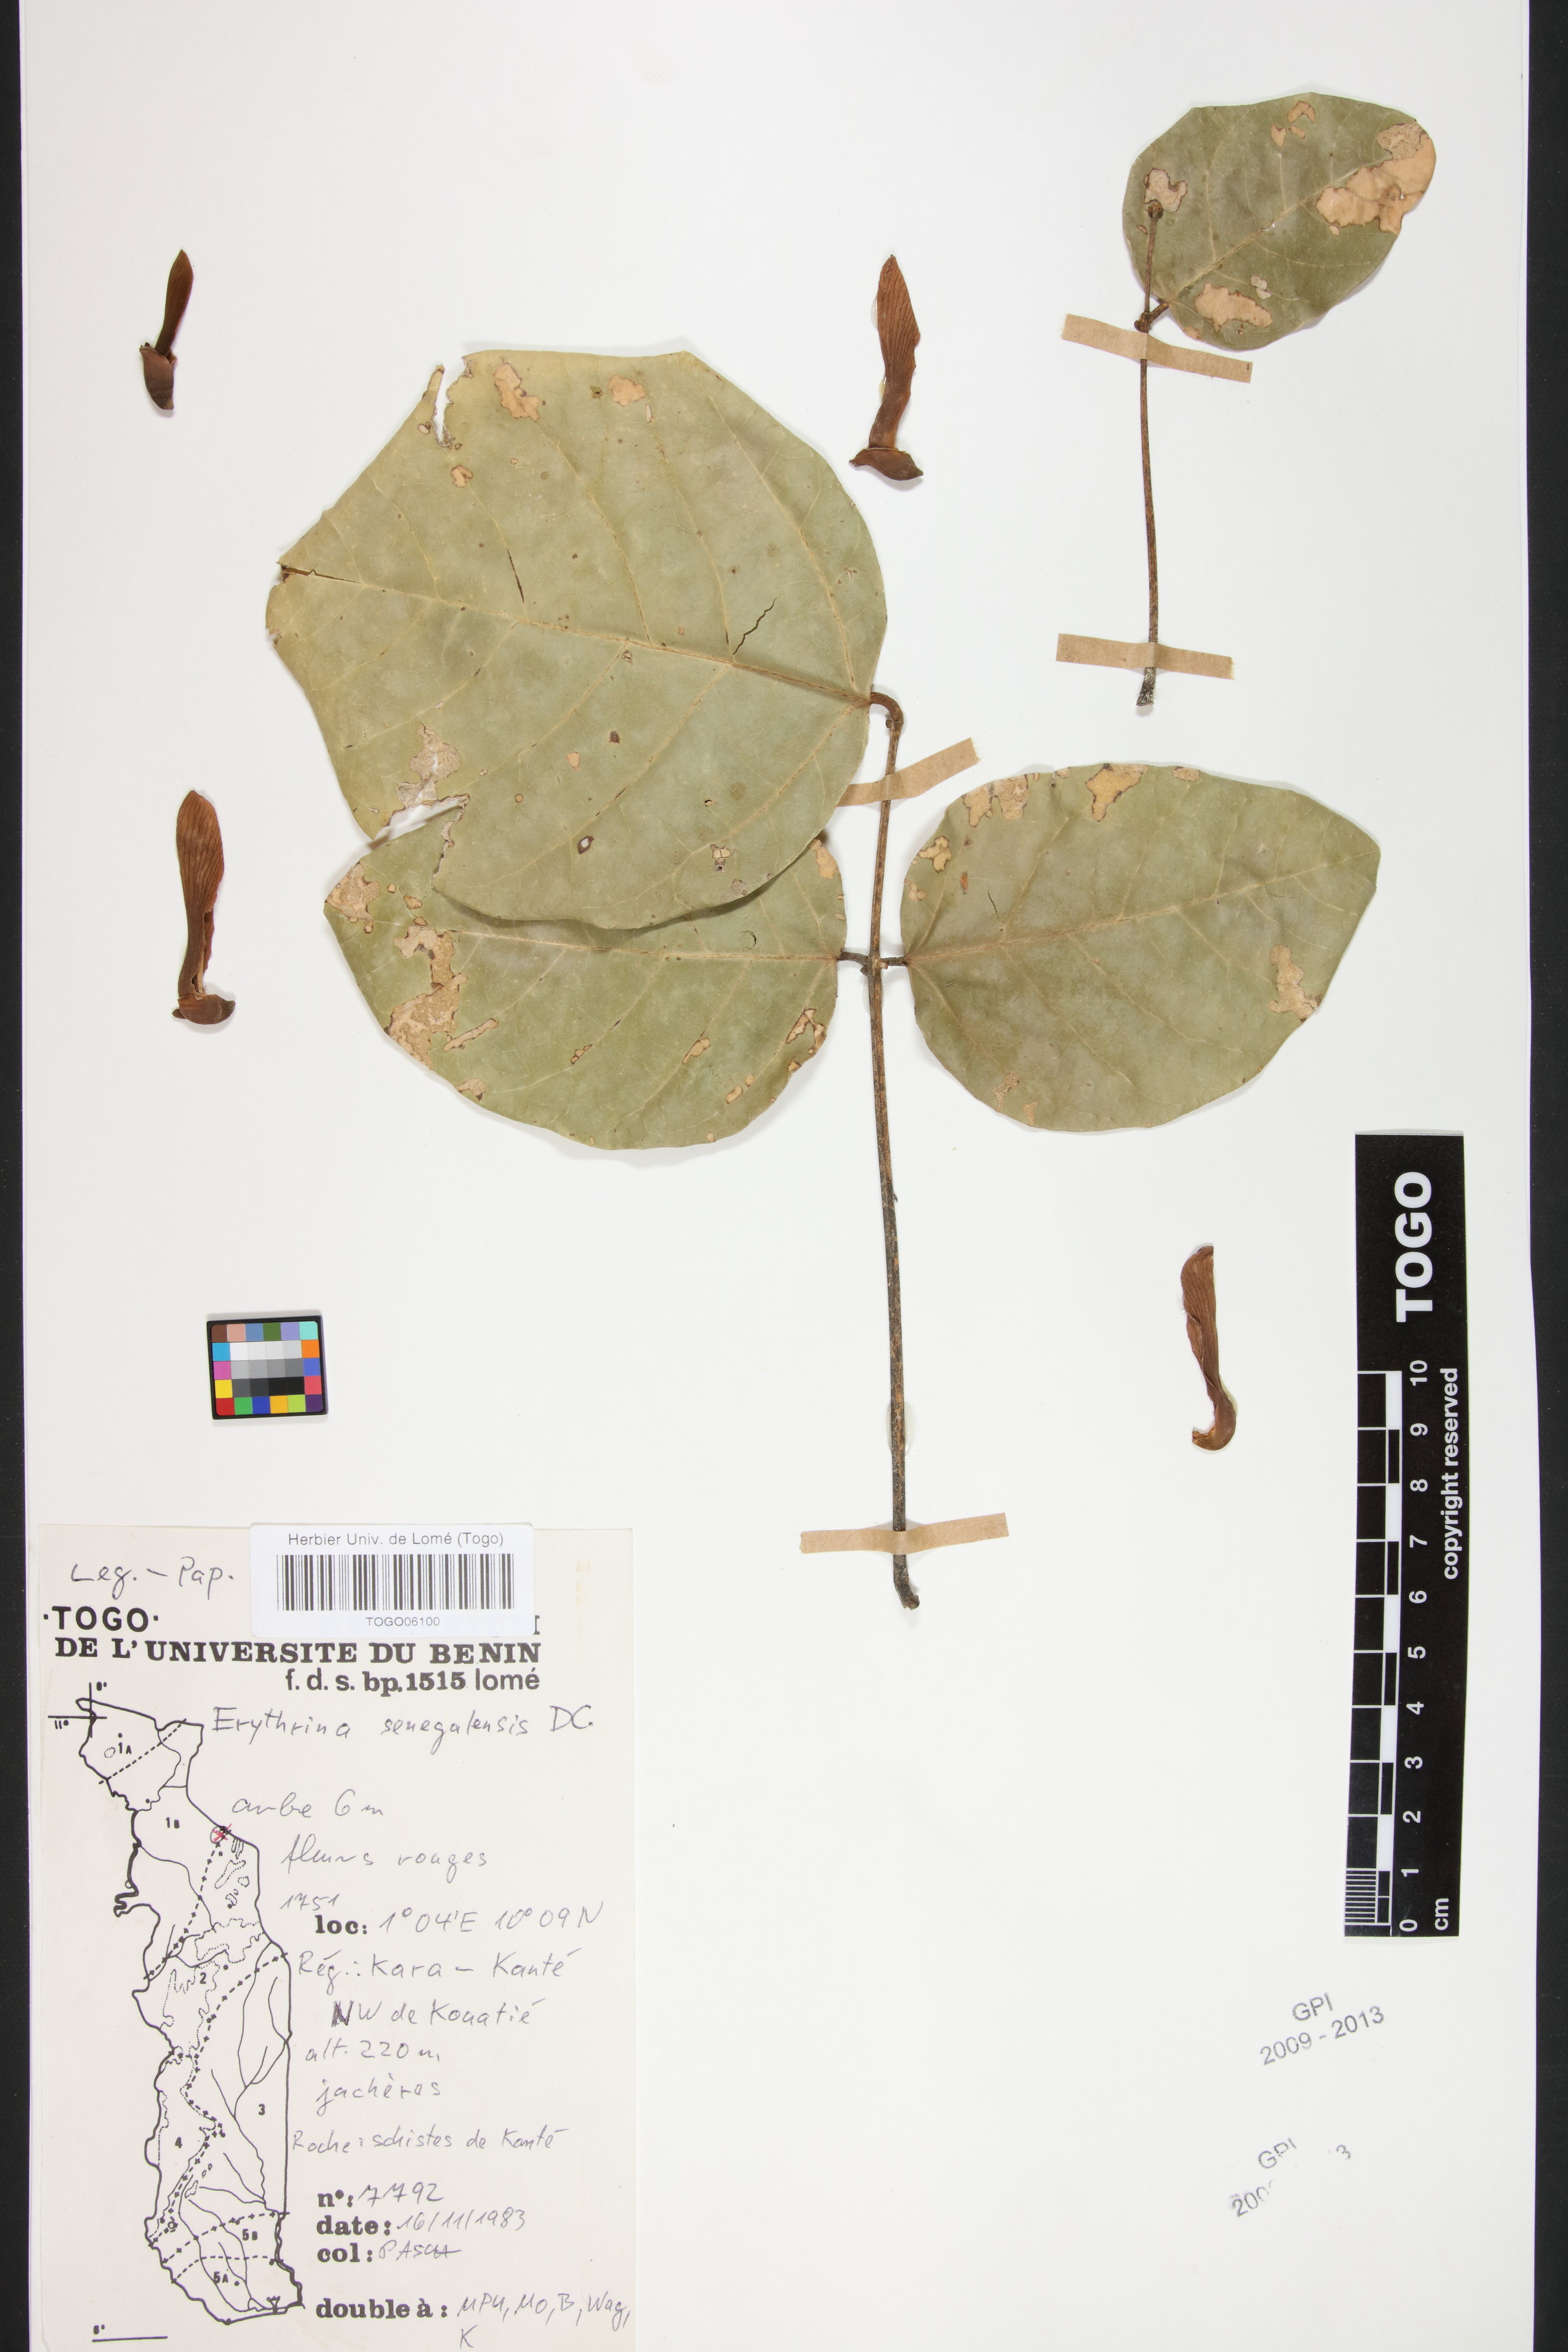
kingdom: Plantae
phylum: Tracheophyta
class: Magnoliopsida
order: Fabales
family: Fabaceae
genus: Erythrina
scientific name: Erythrina senegalensis
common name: Senegal coraltree
